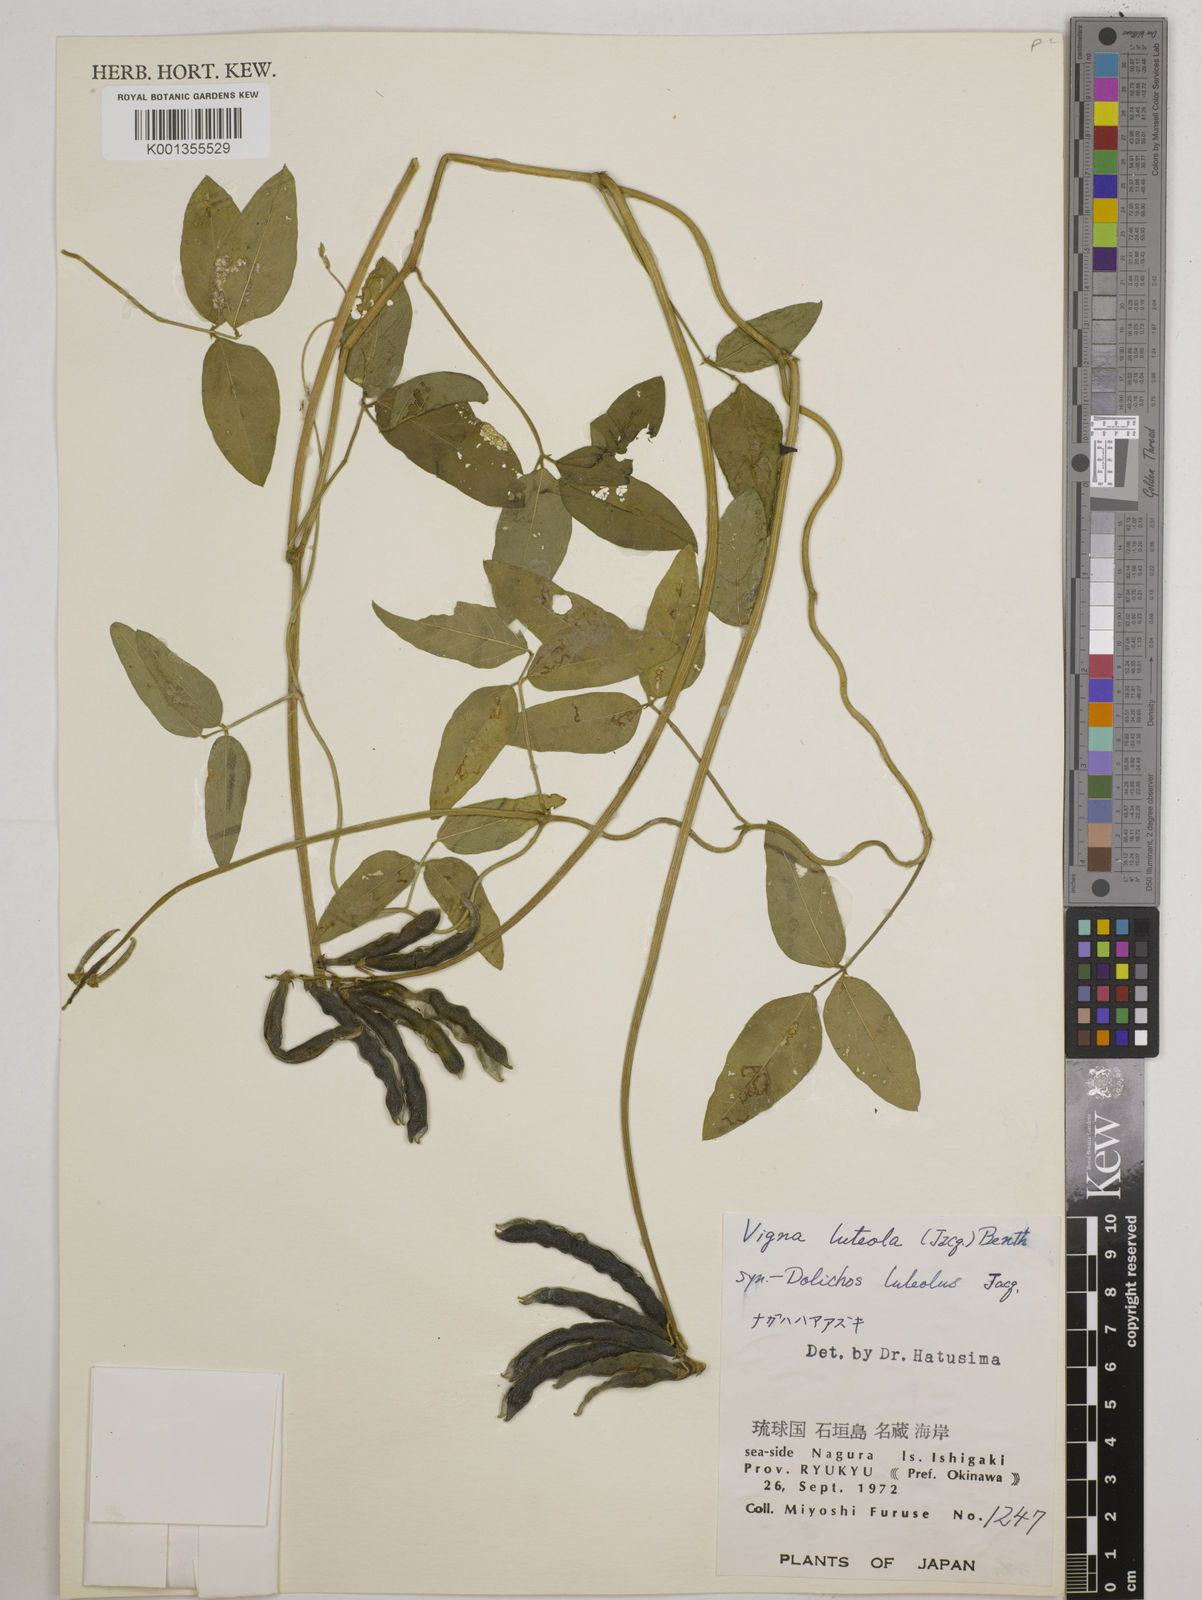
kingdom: Plantae
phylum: Tracheophyta
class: Magnoliopsida
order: Fabales
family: Fabaceae
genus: Vigna
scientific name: Vigna luteola
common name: Hairypod cowpea
